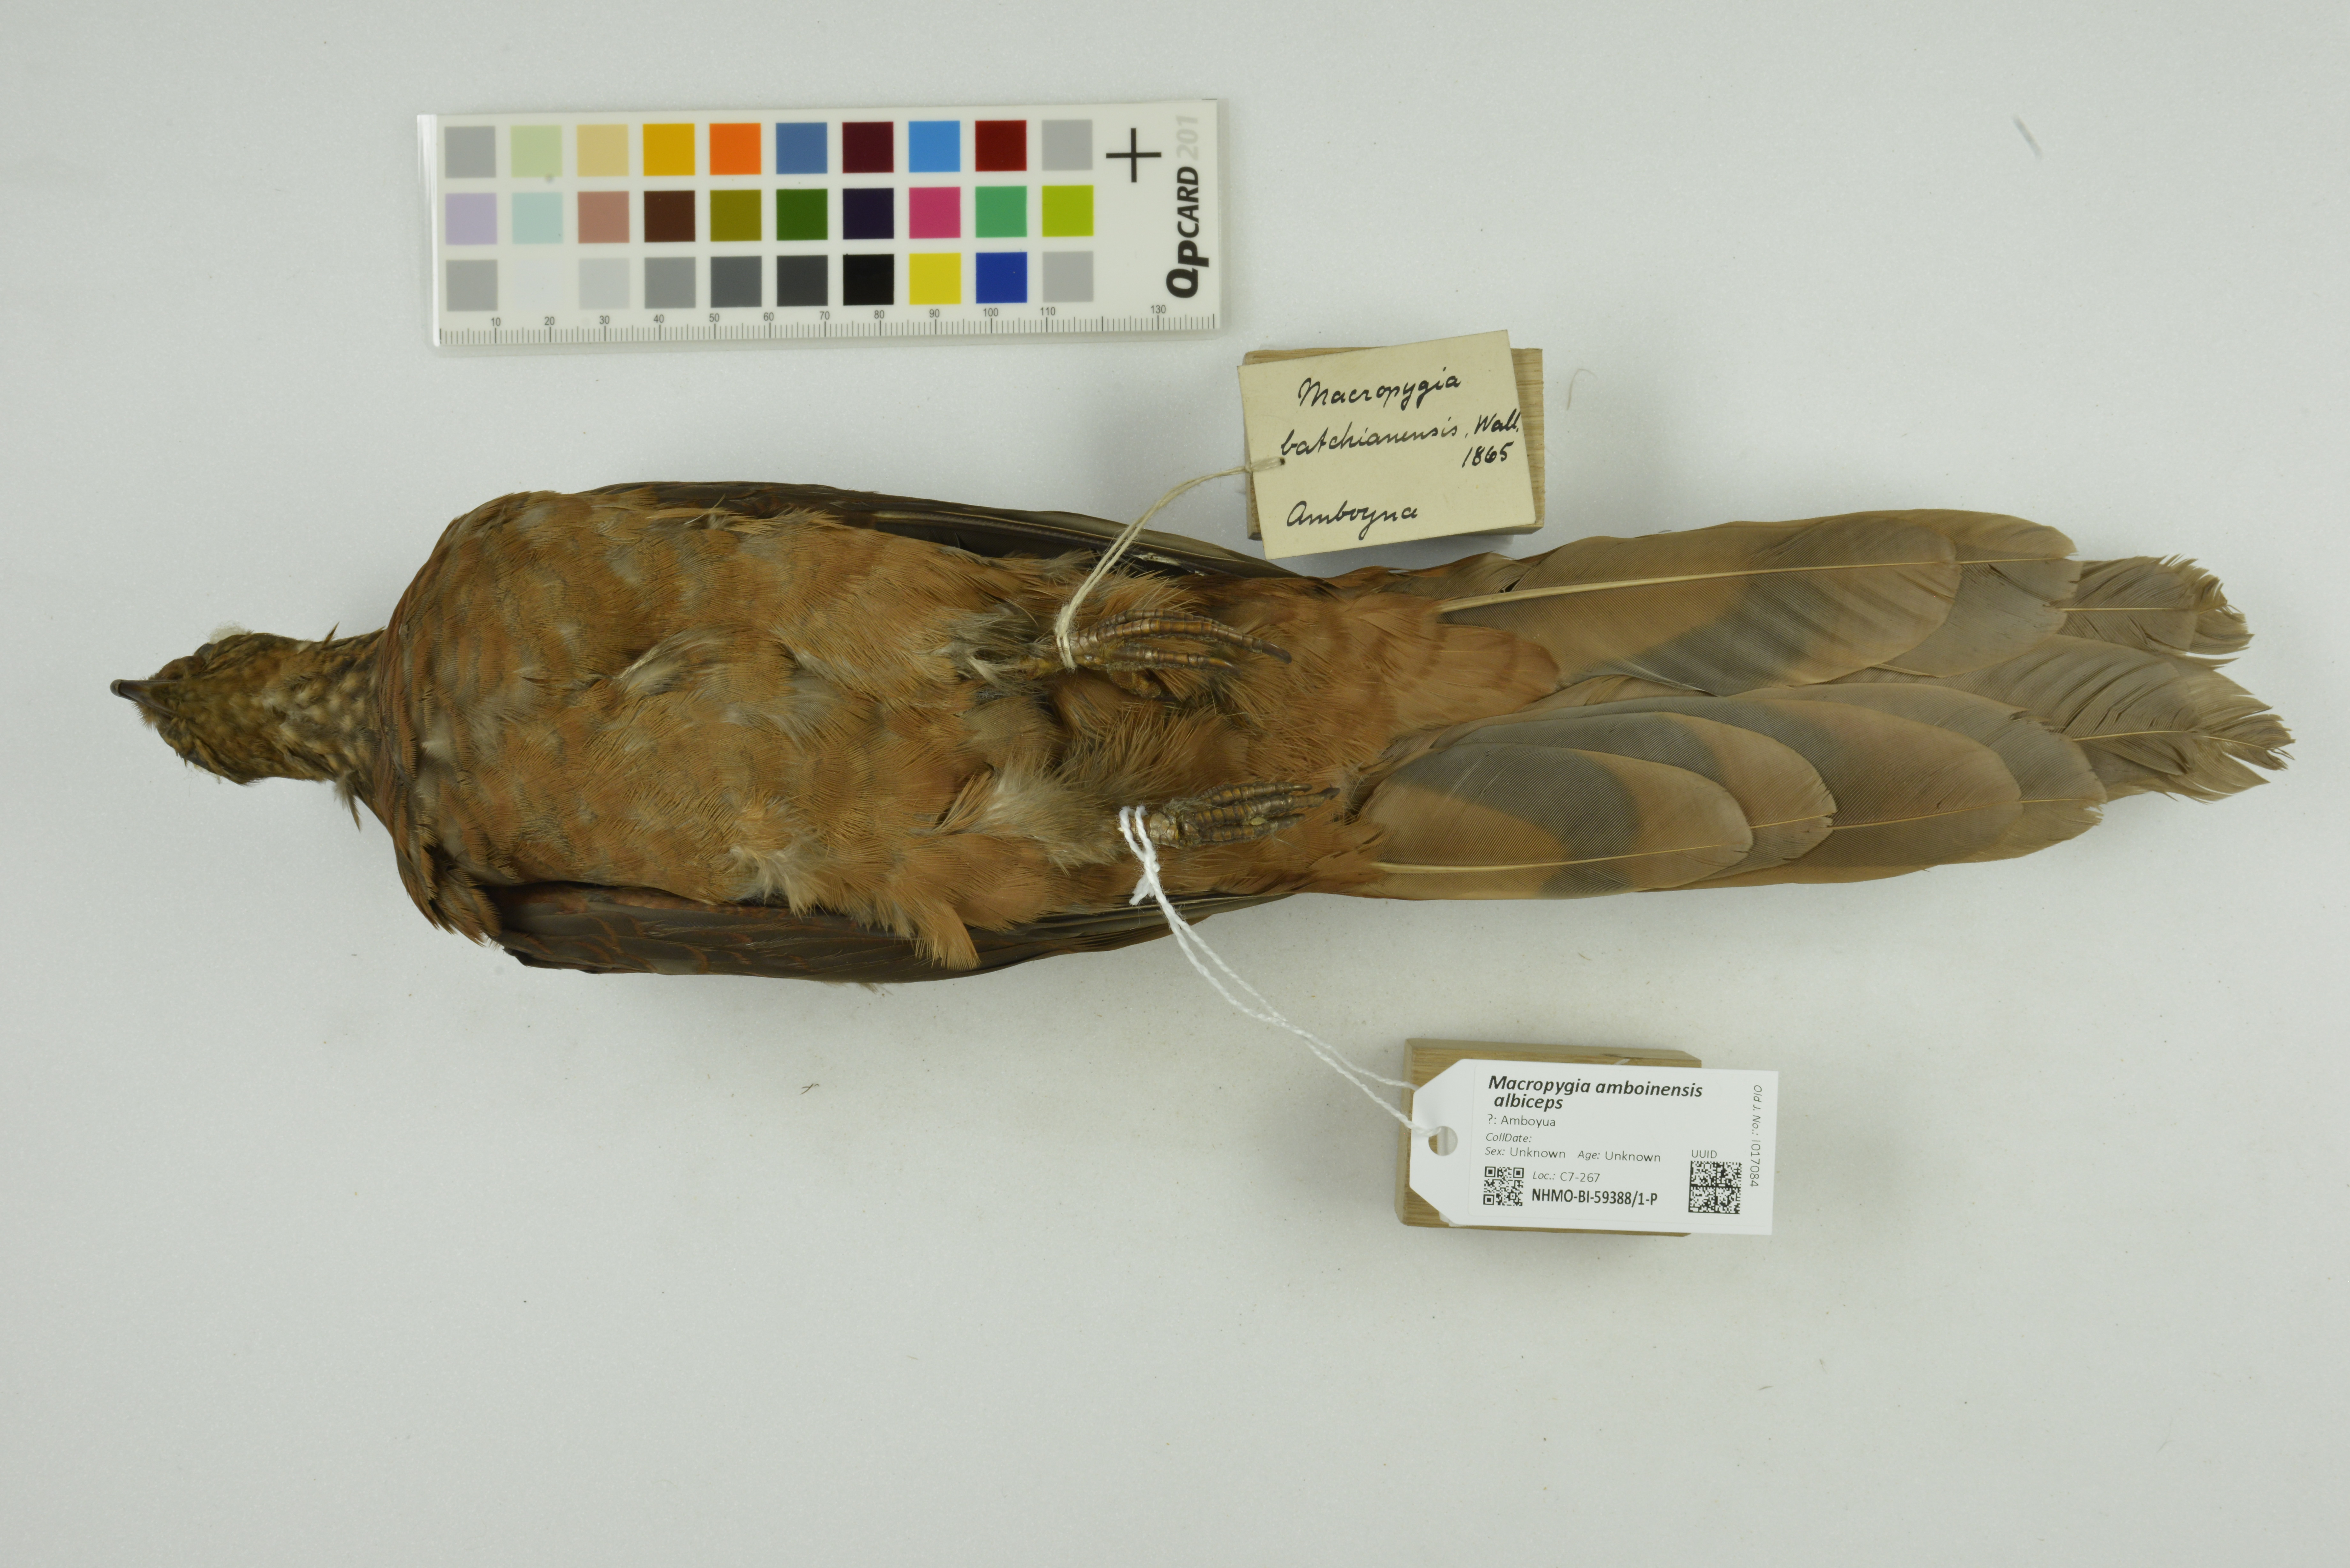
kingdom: Animalia
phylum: Chordata
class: Aves
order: Columbiformes
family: Columbidae
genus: Macropygia
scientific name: Macropygia doreya
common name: Sultan's cuckoo-dove
